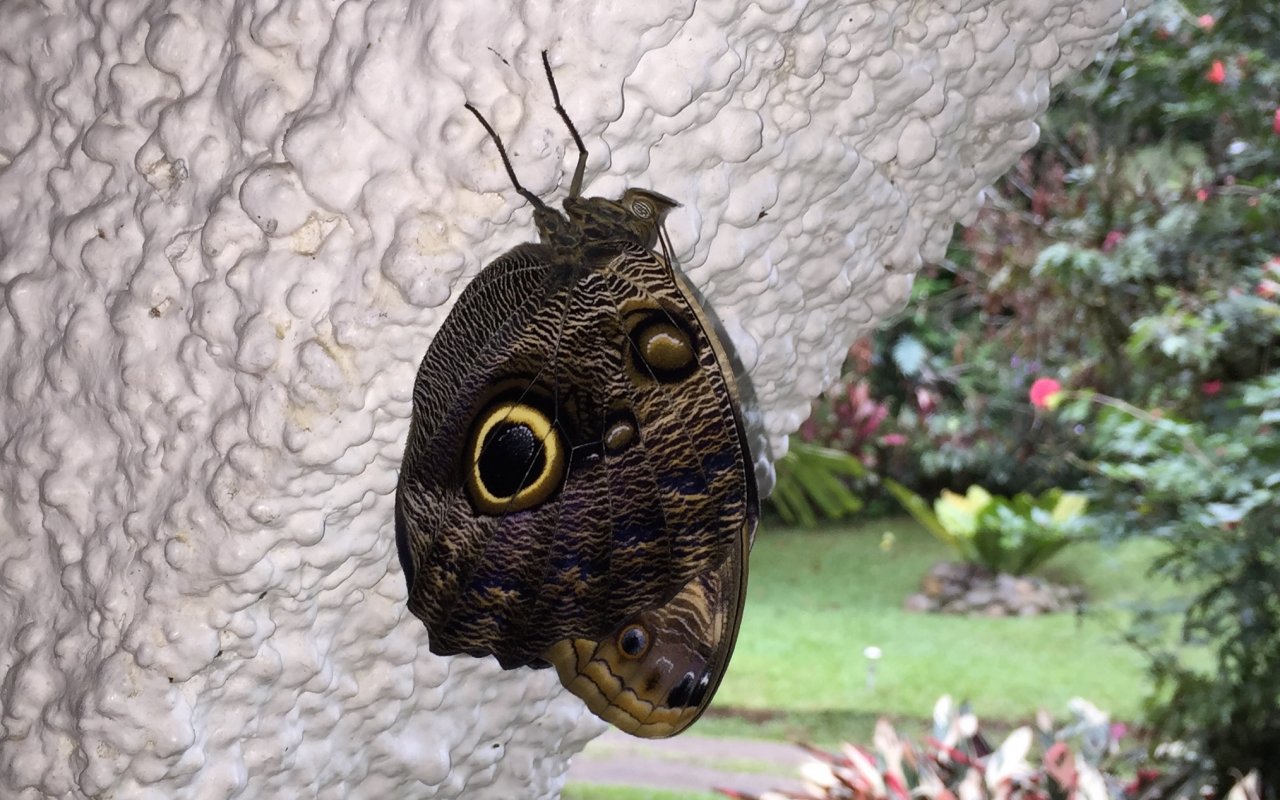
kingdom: Animalia
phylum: Arthropoda
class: Insecta
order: Lepidoptera
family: Nymphalidae
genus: Caligo
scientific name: Caligo
